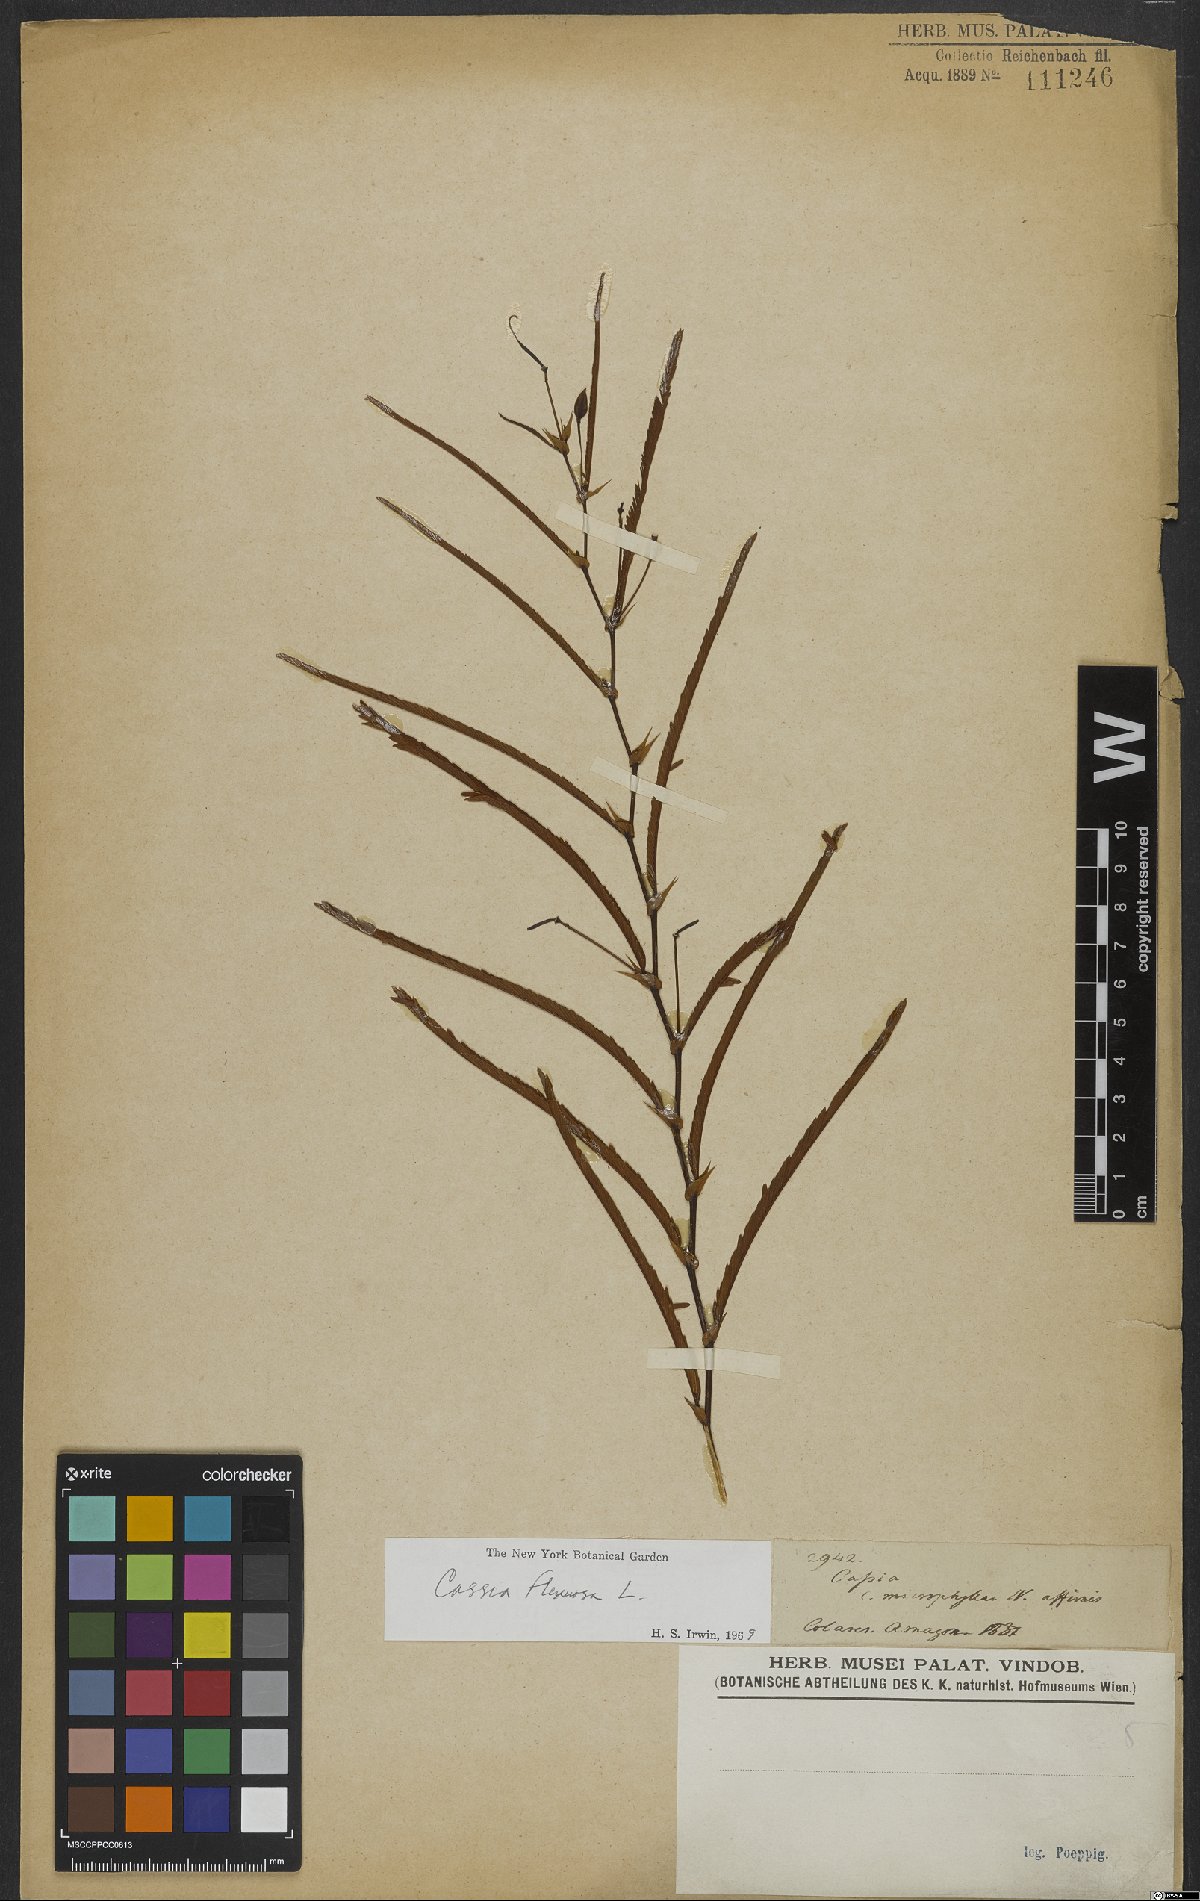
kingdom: Plantae
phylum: Tracheophyta
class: Magnoliopsida
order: Fabales
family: Fabaceae
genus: Chamaecrista
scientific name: Chamaecrista flexuosa
